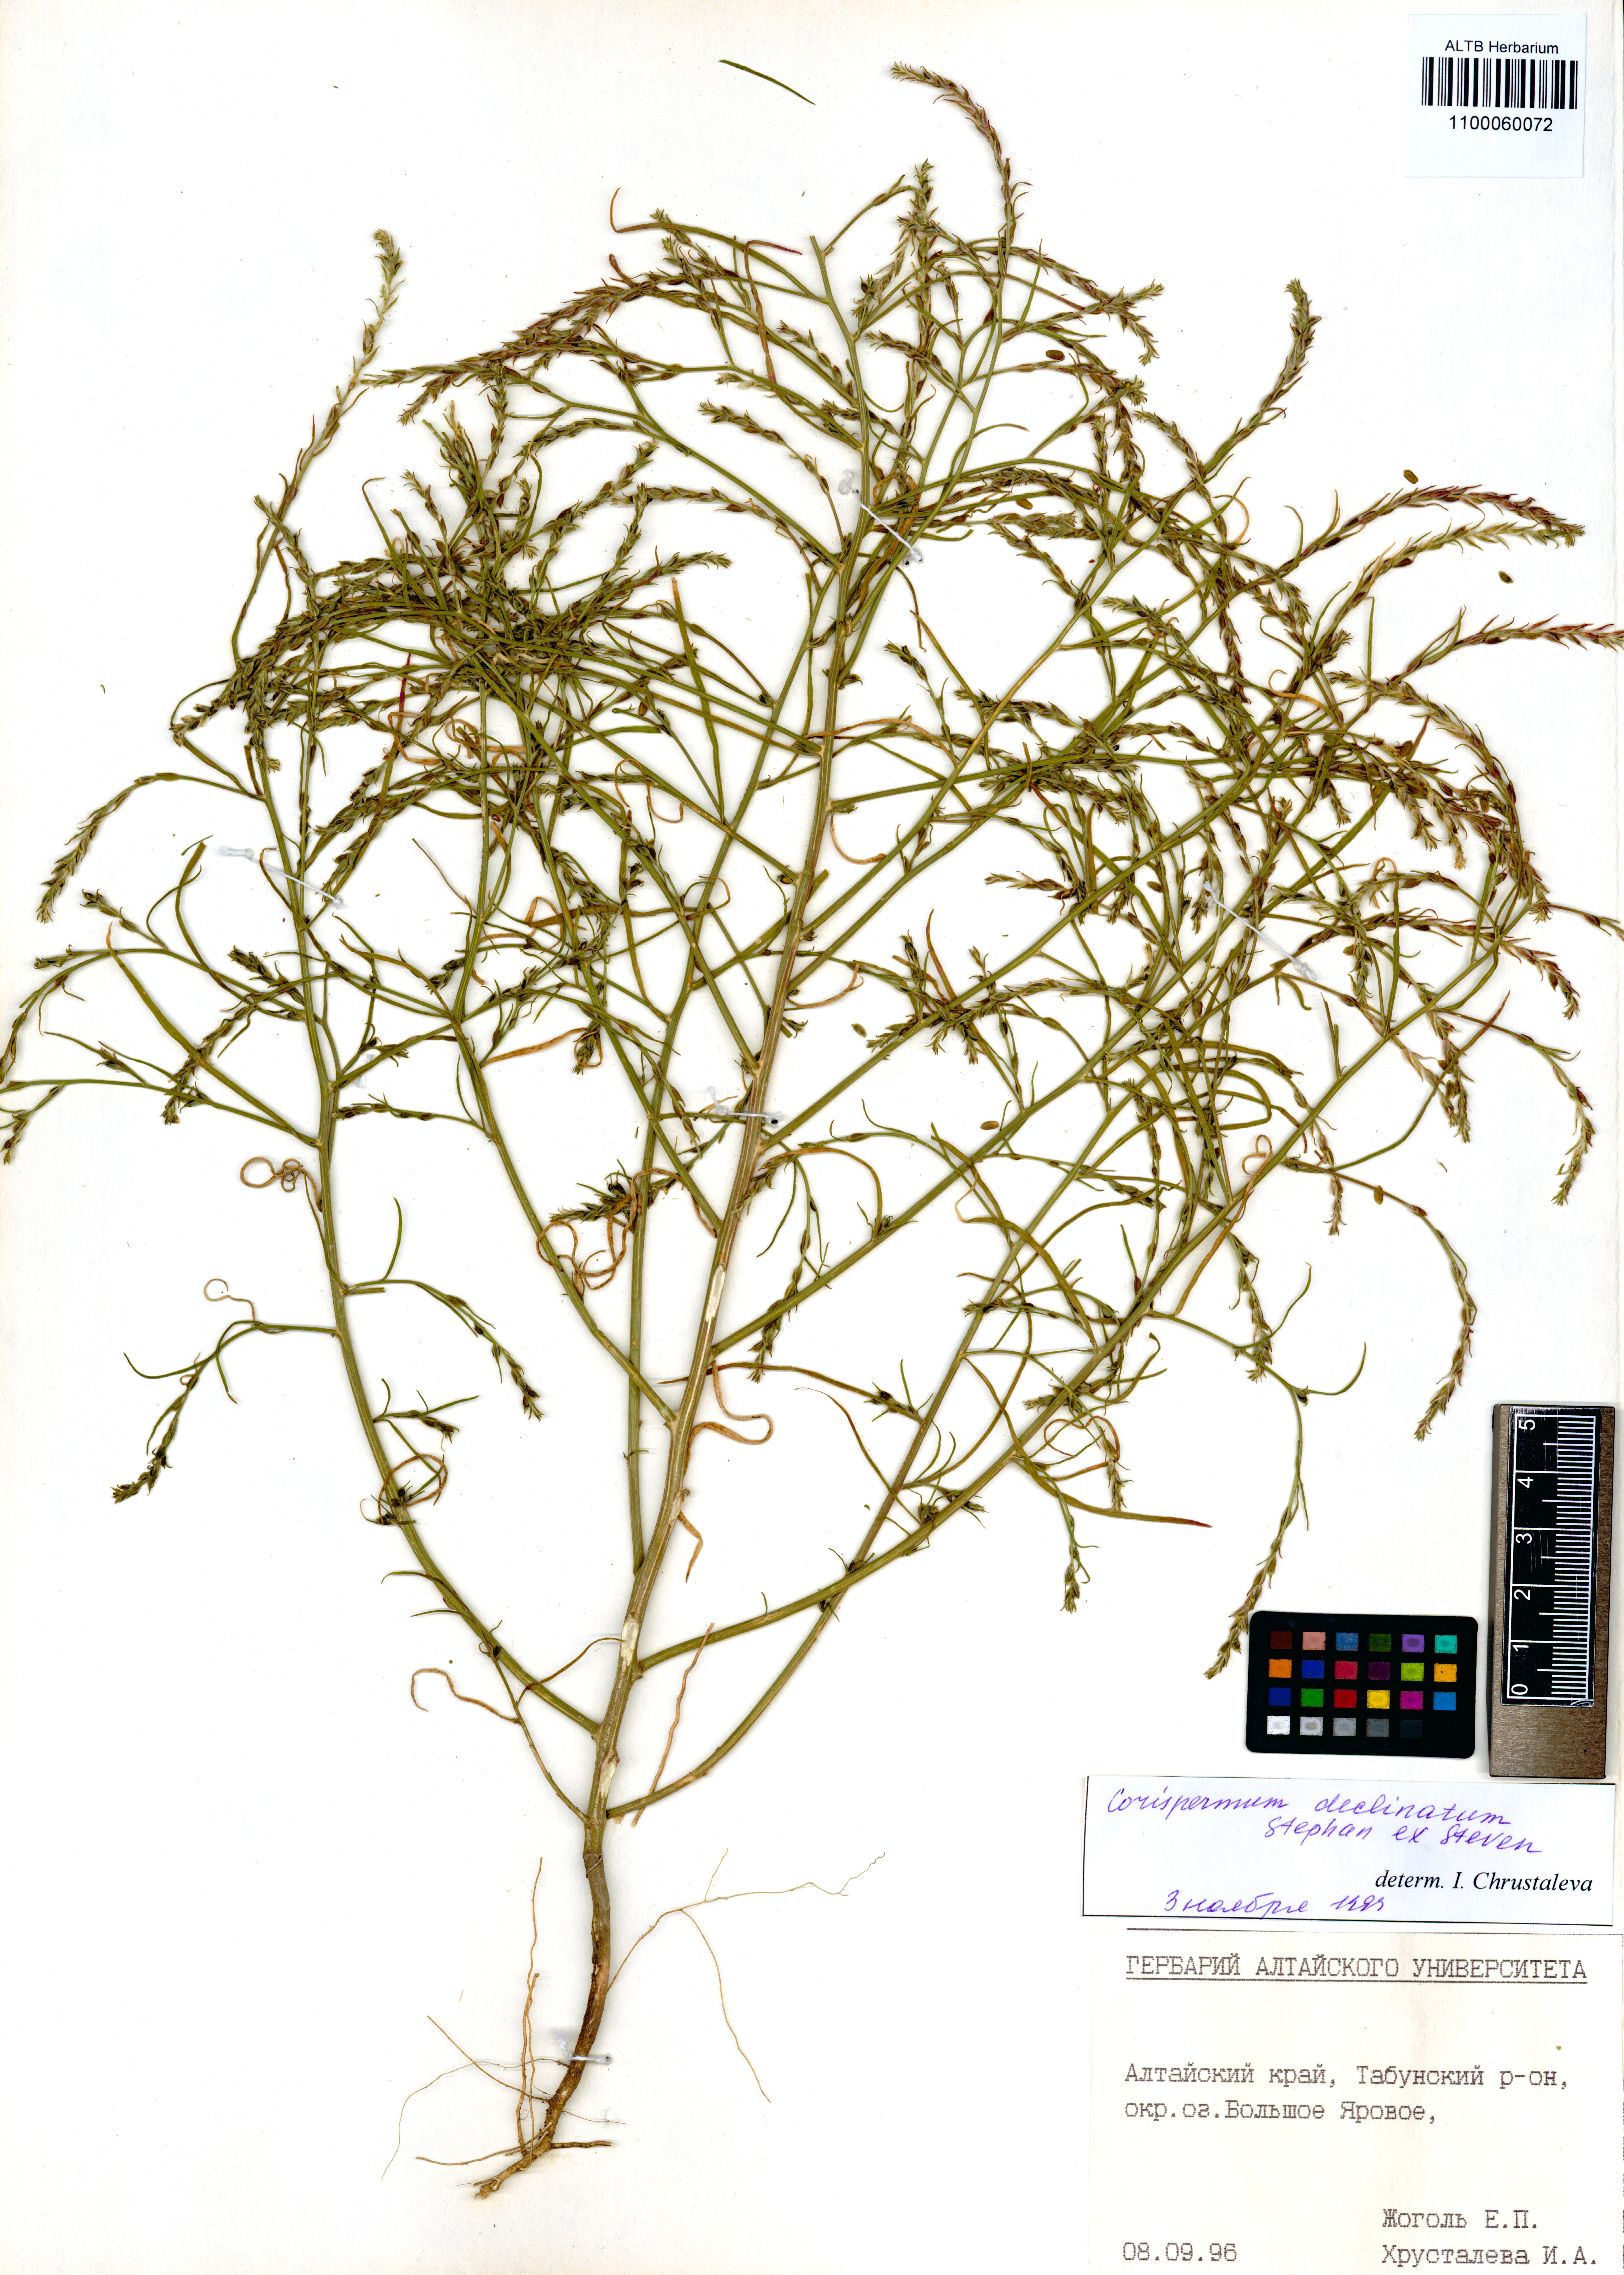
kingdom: Plantae
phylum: Tracheophyta
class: Magnoliopsida
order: Caryophyllales
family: Amaranthaceae
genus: Corispermum
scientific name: Corispermum declinatum
